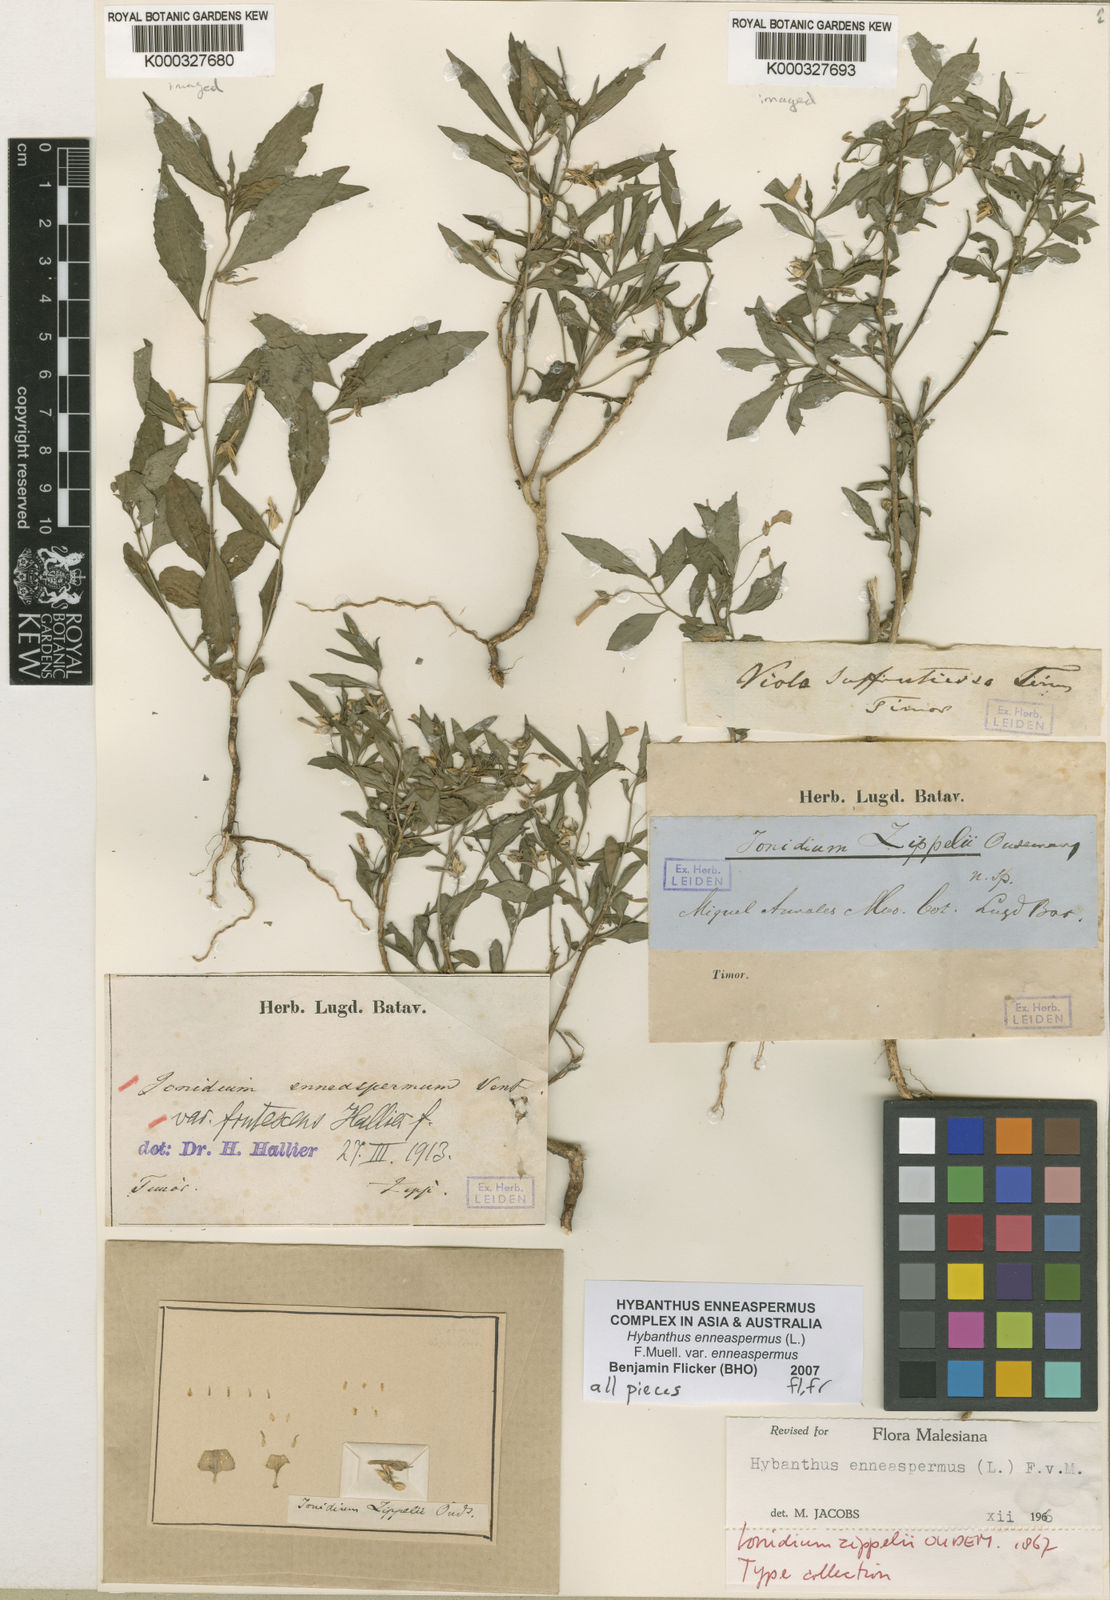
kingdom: Plantae
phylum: Tracheophyta
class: Magnoliopsida
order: Malpighiales
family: Violaceae
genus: Pigea
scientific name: Pigea enneasperma
